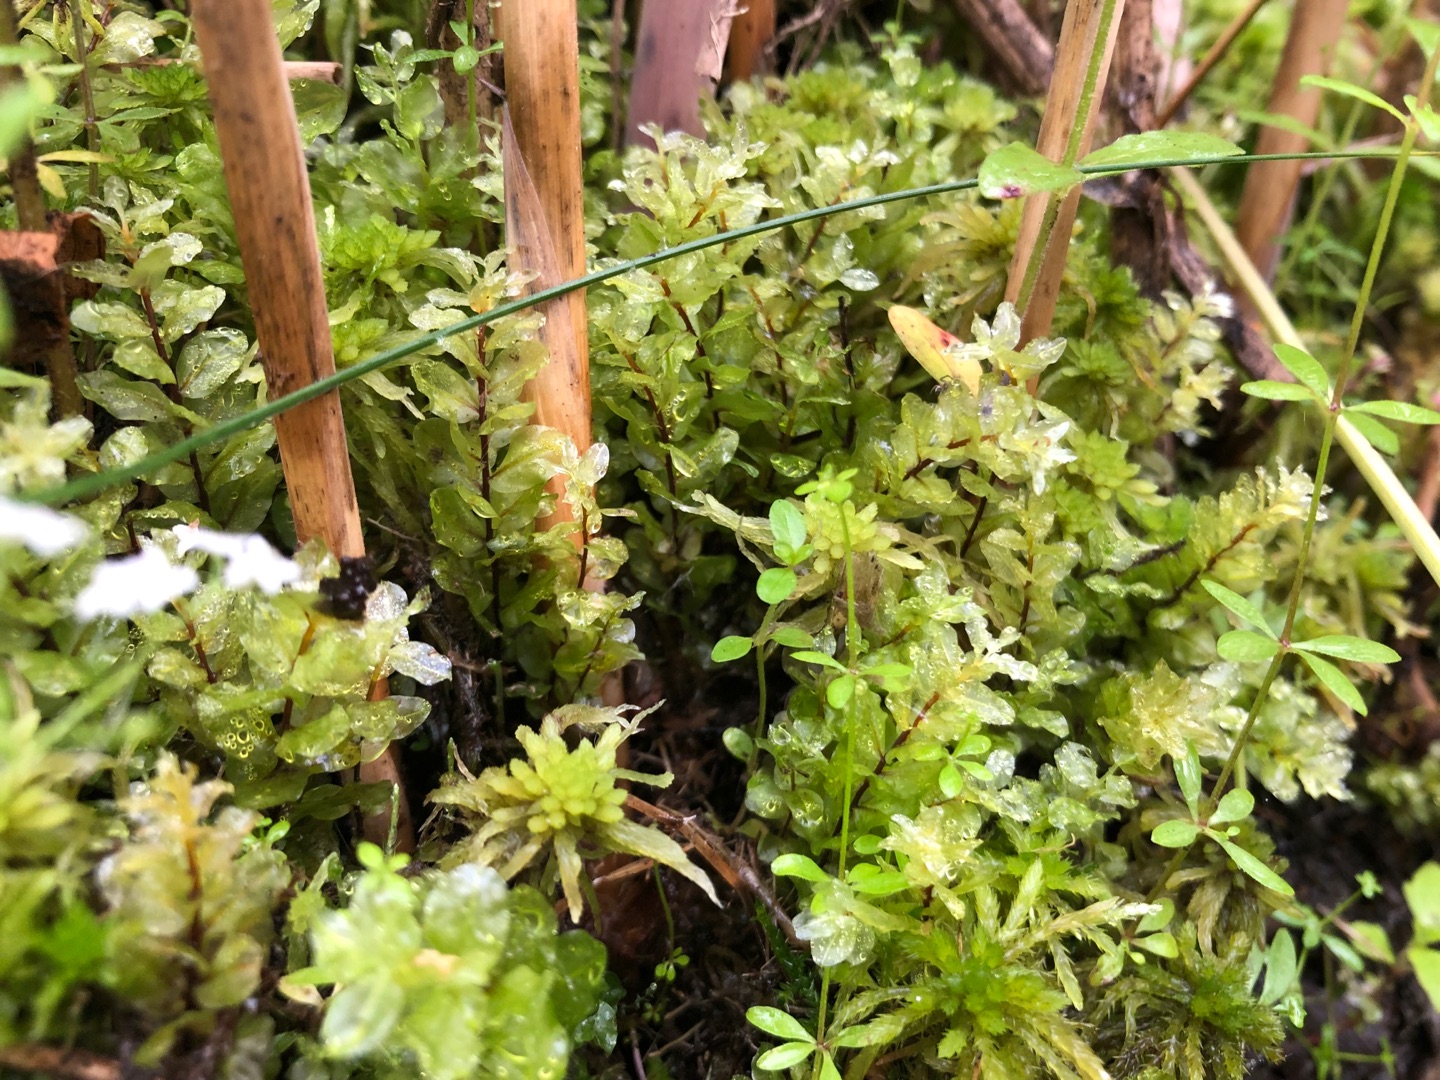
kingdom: Plantae
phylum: Bryophyta
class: Bryopsida
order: Bryales
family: Mniaceae
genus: Pseudobryum
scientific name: Pseudobryum cinclidioides
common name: Sortstænglet sumpmos
